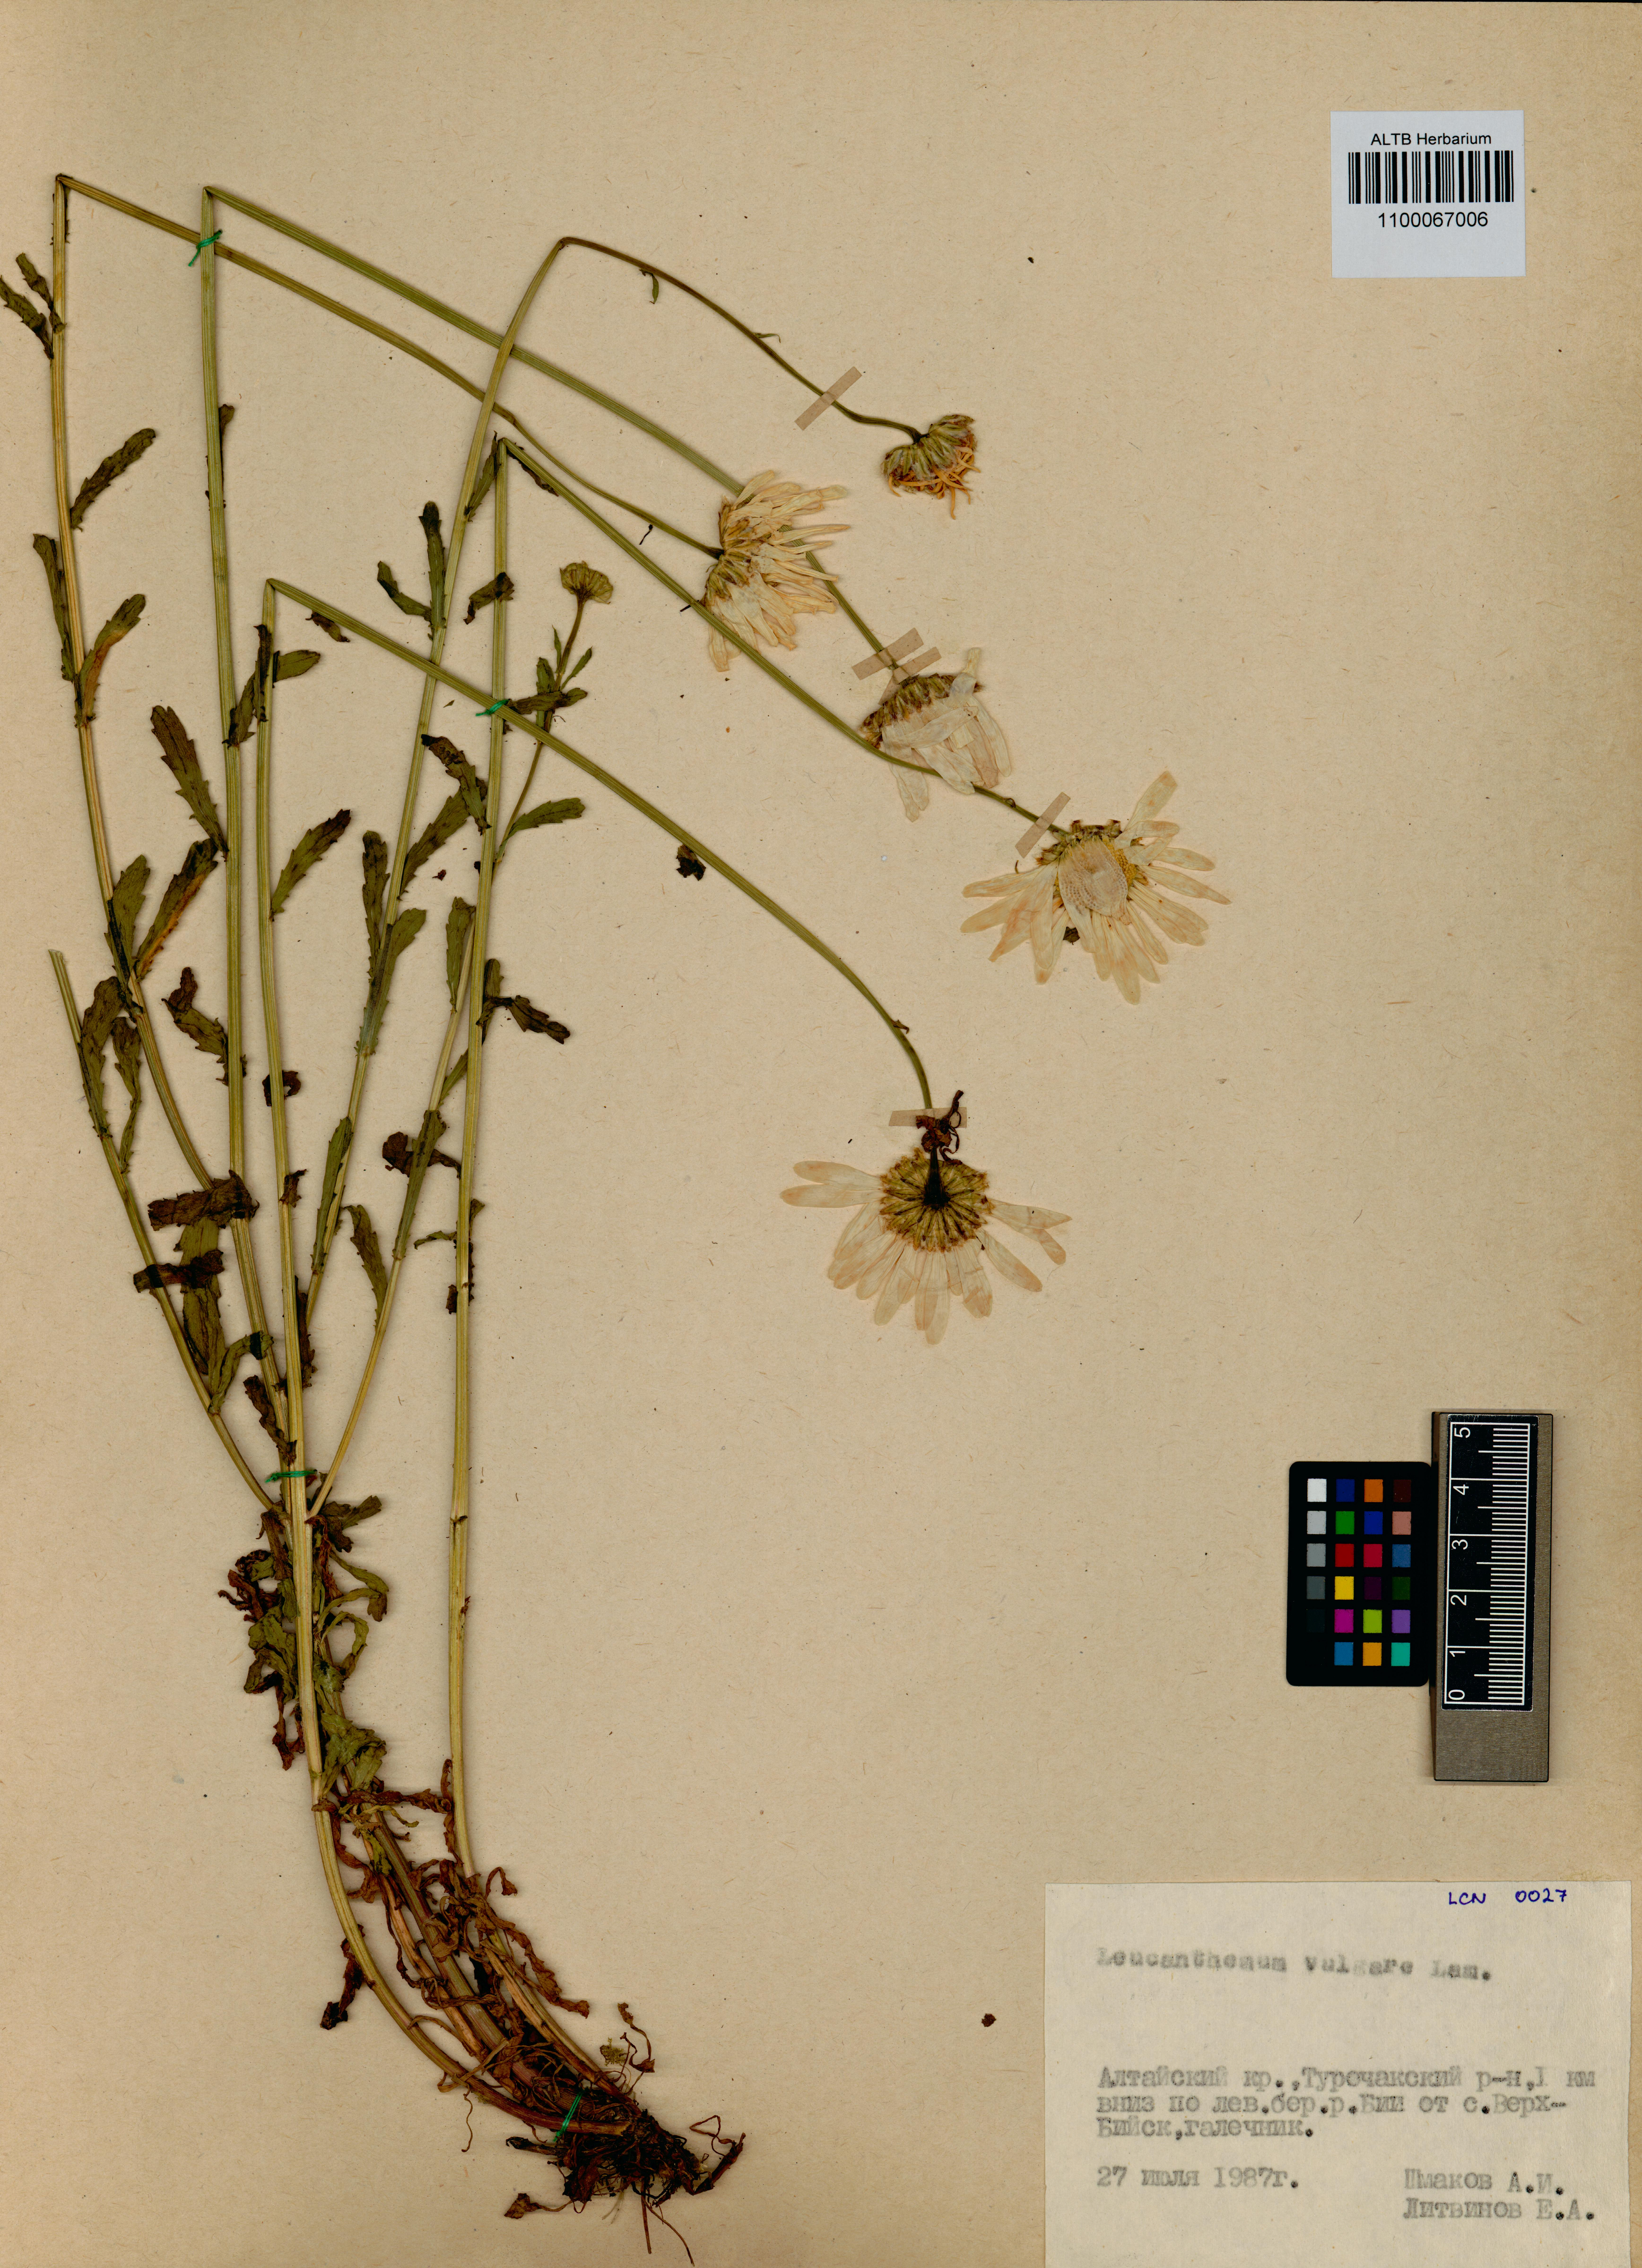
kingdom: Plantae
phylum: Tracheophyta
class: Magnoliopsida
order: Asterales
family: Asteraceae
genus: Leucanthemum
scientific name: Leucanthemum vulgare
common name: Oxeye daisy
